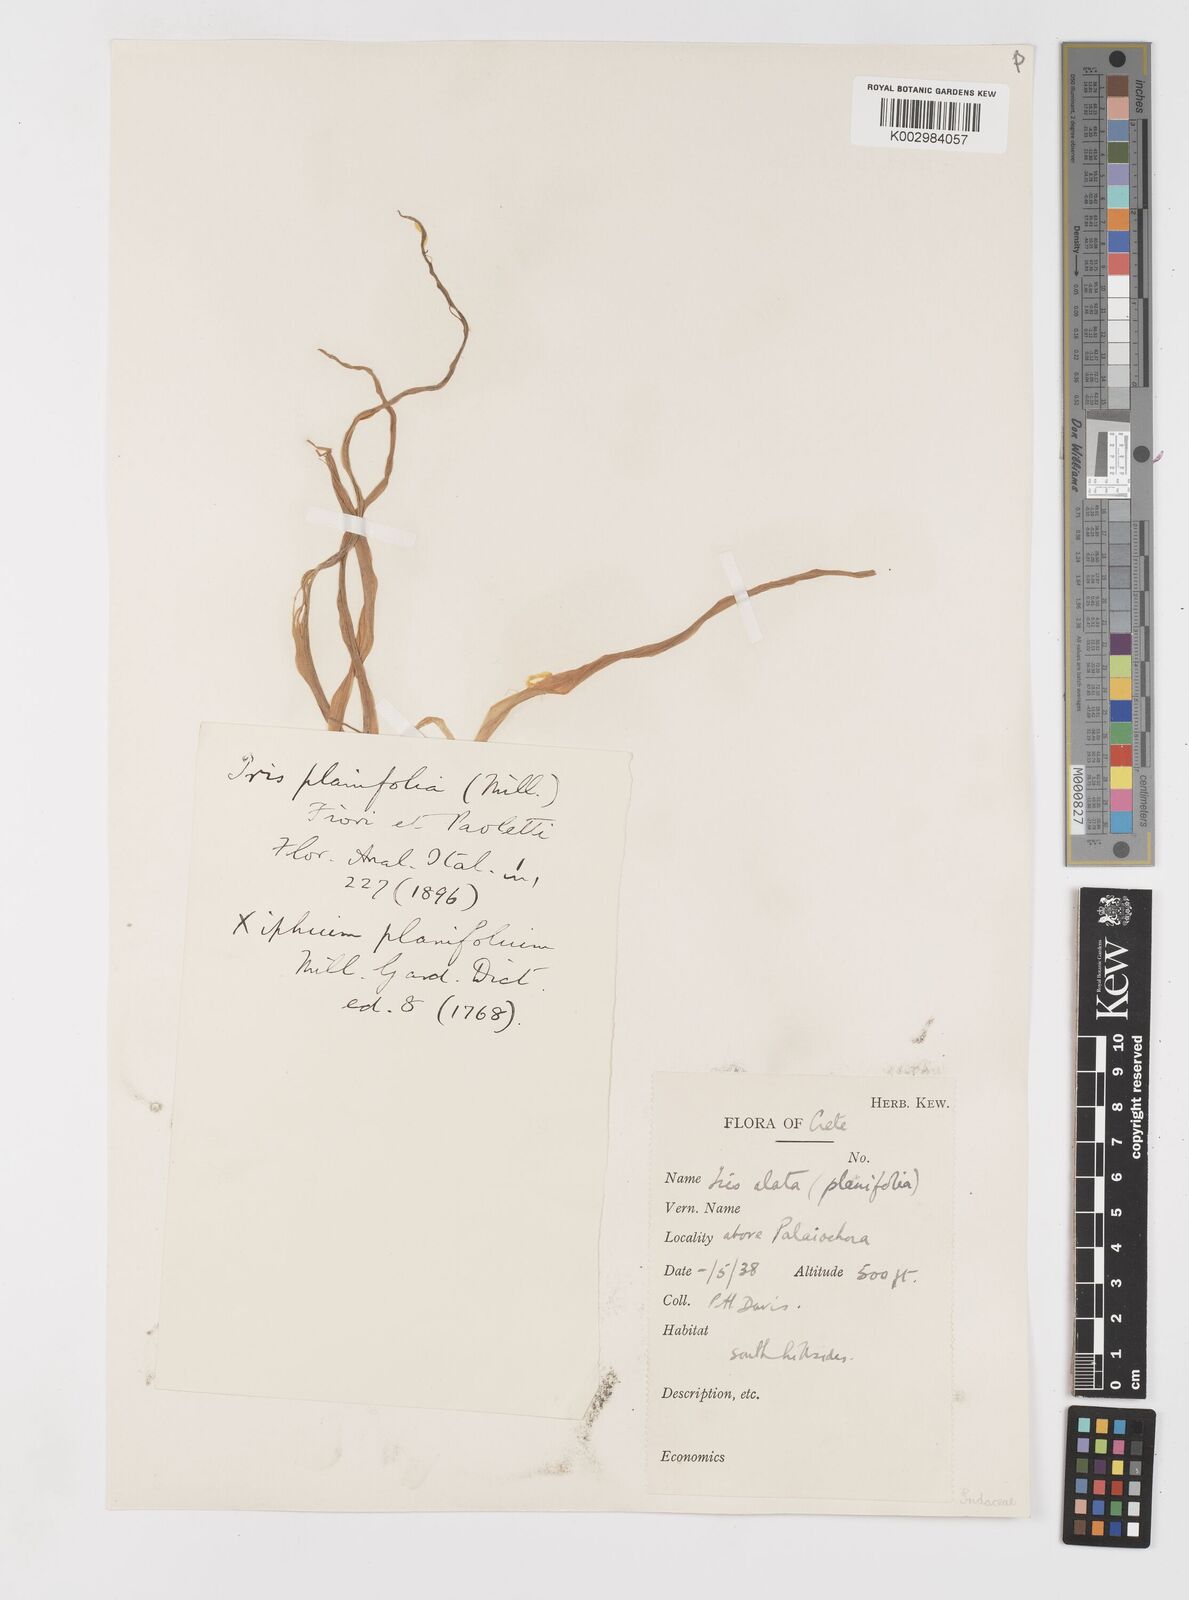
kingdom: Plantae
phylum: Tracheophyta
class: Liliopsida
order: Asparagales
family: Iridaceae
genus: Iris
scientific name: Iris planifolia
